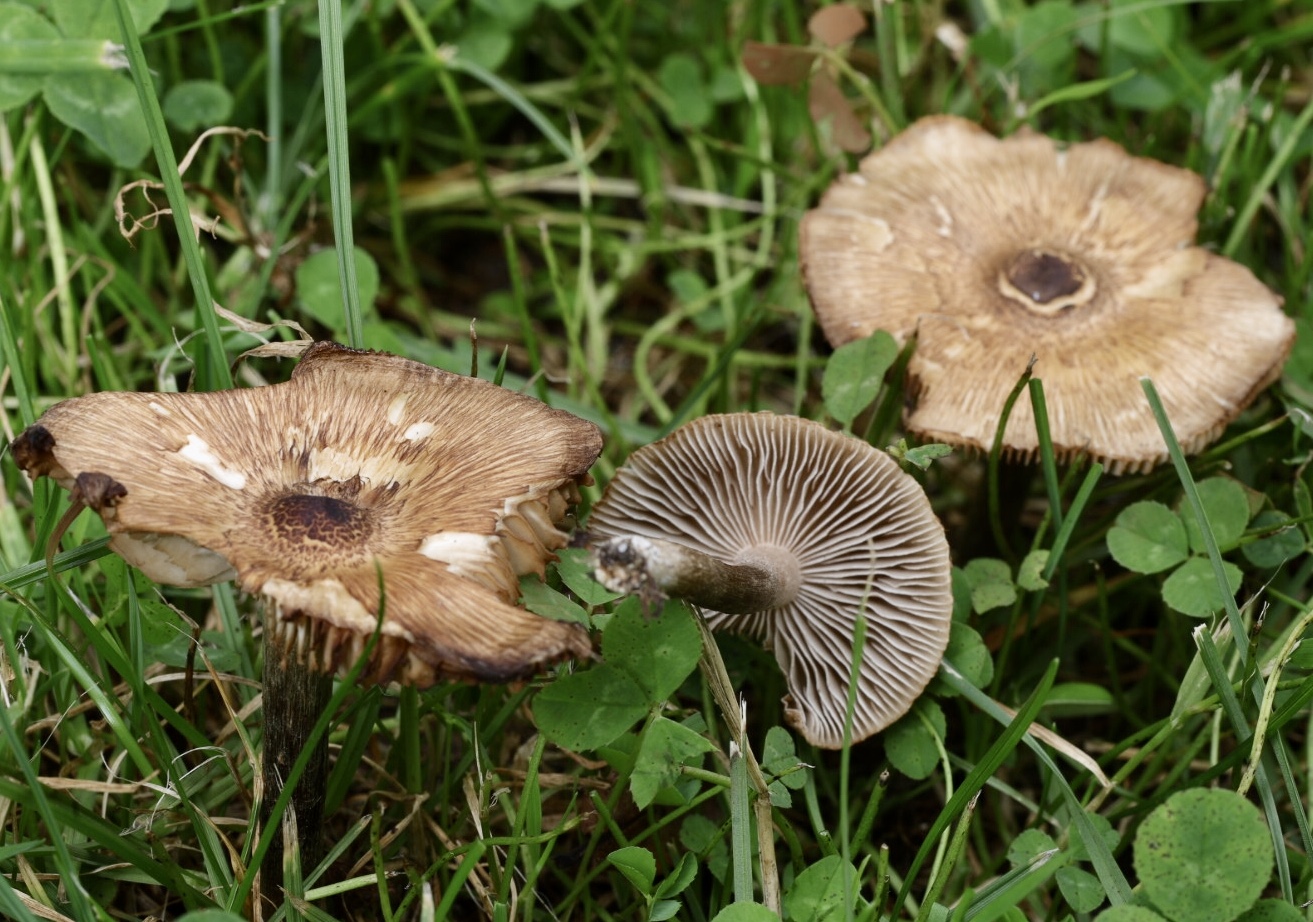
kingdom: Fungi
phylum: Basidiomycota
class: Agaricomycetes
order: Agaricales
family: Inocybaceae
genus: Inocybe
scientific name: Inocybe curvipes
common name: plæne-trævlhat
